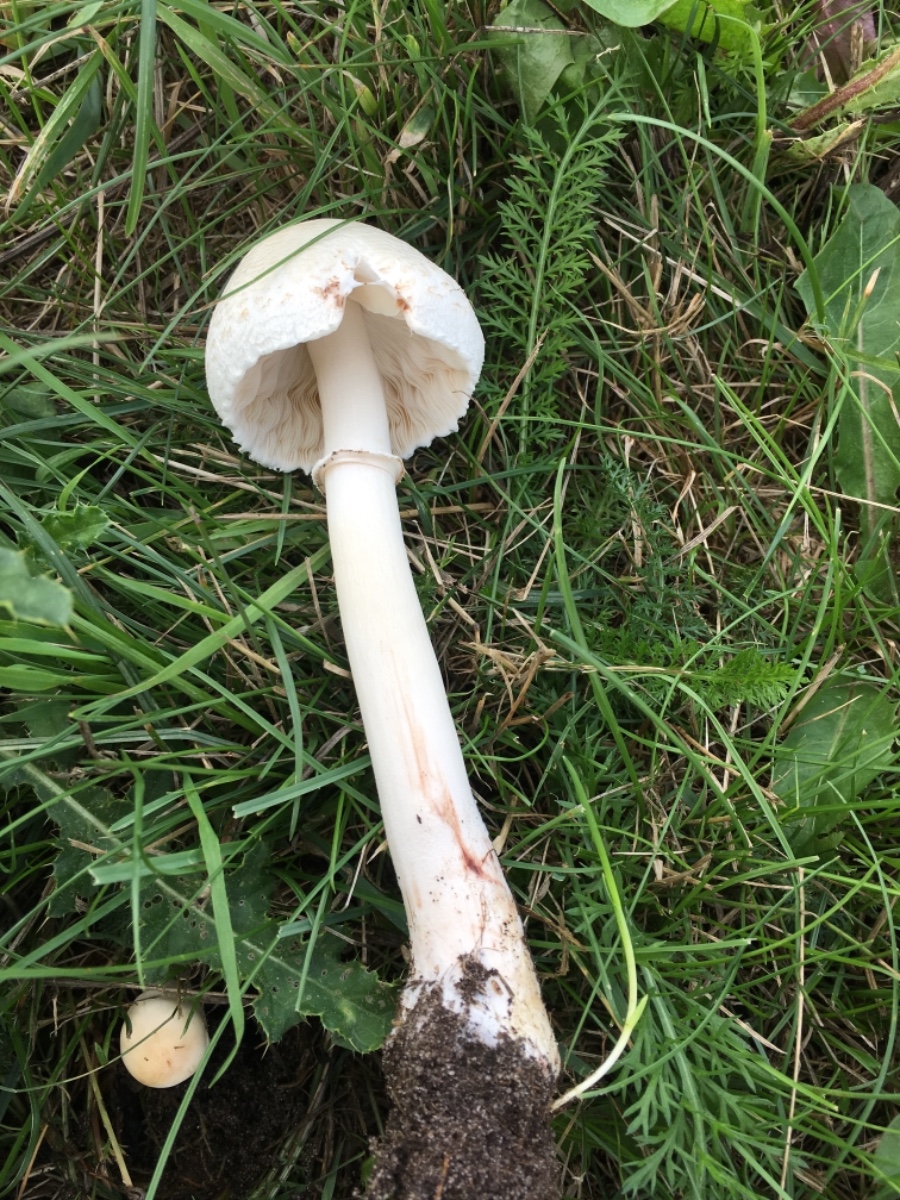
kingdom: Fungi
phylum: Basidiomycota
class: Agaricomycetes
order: Agaricales
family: Agaricaceae
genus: Leucoagaricus
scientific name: Leucoagaricus leucothites
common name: rosabladet silkehat
